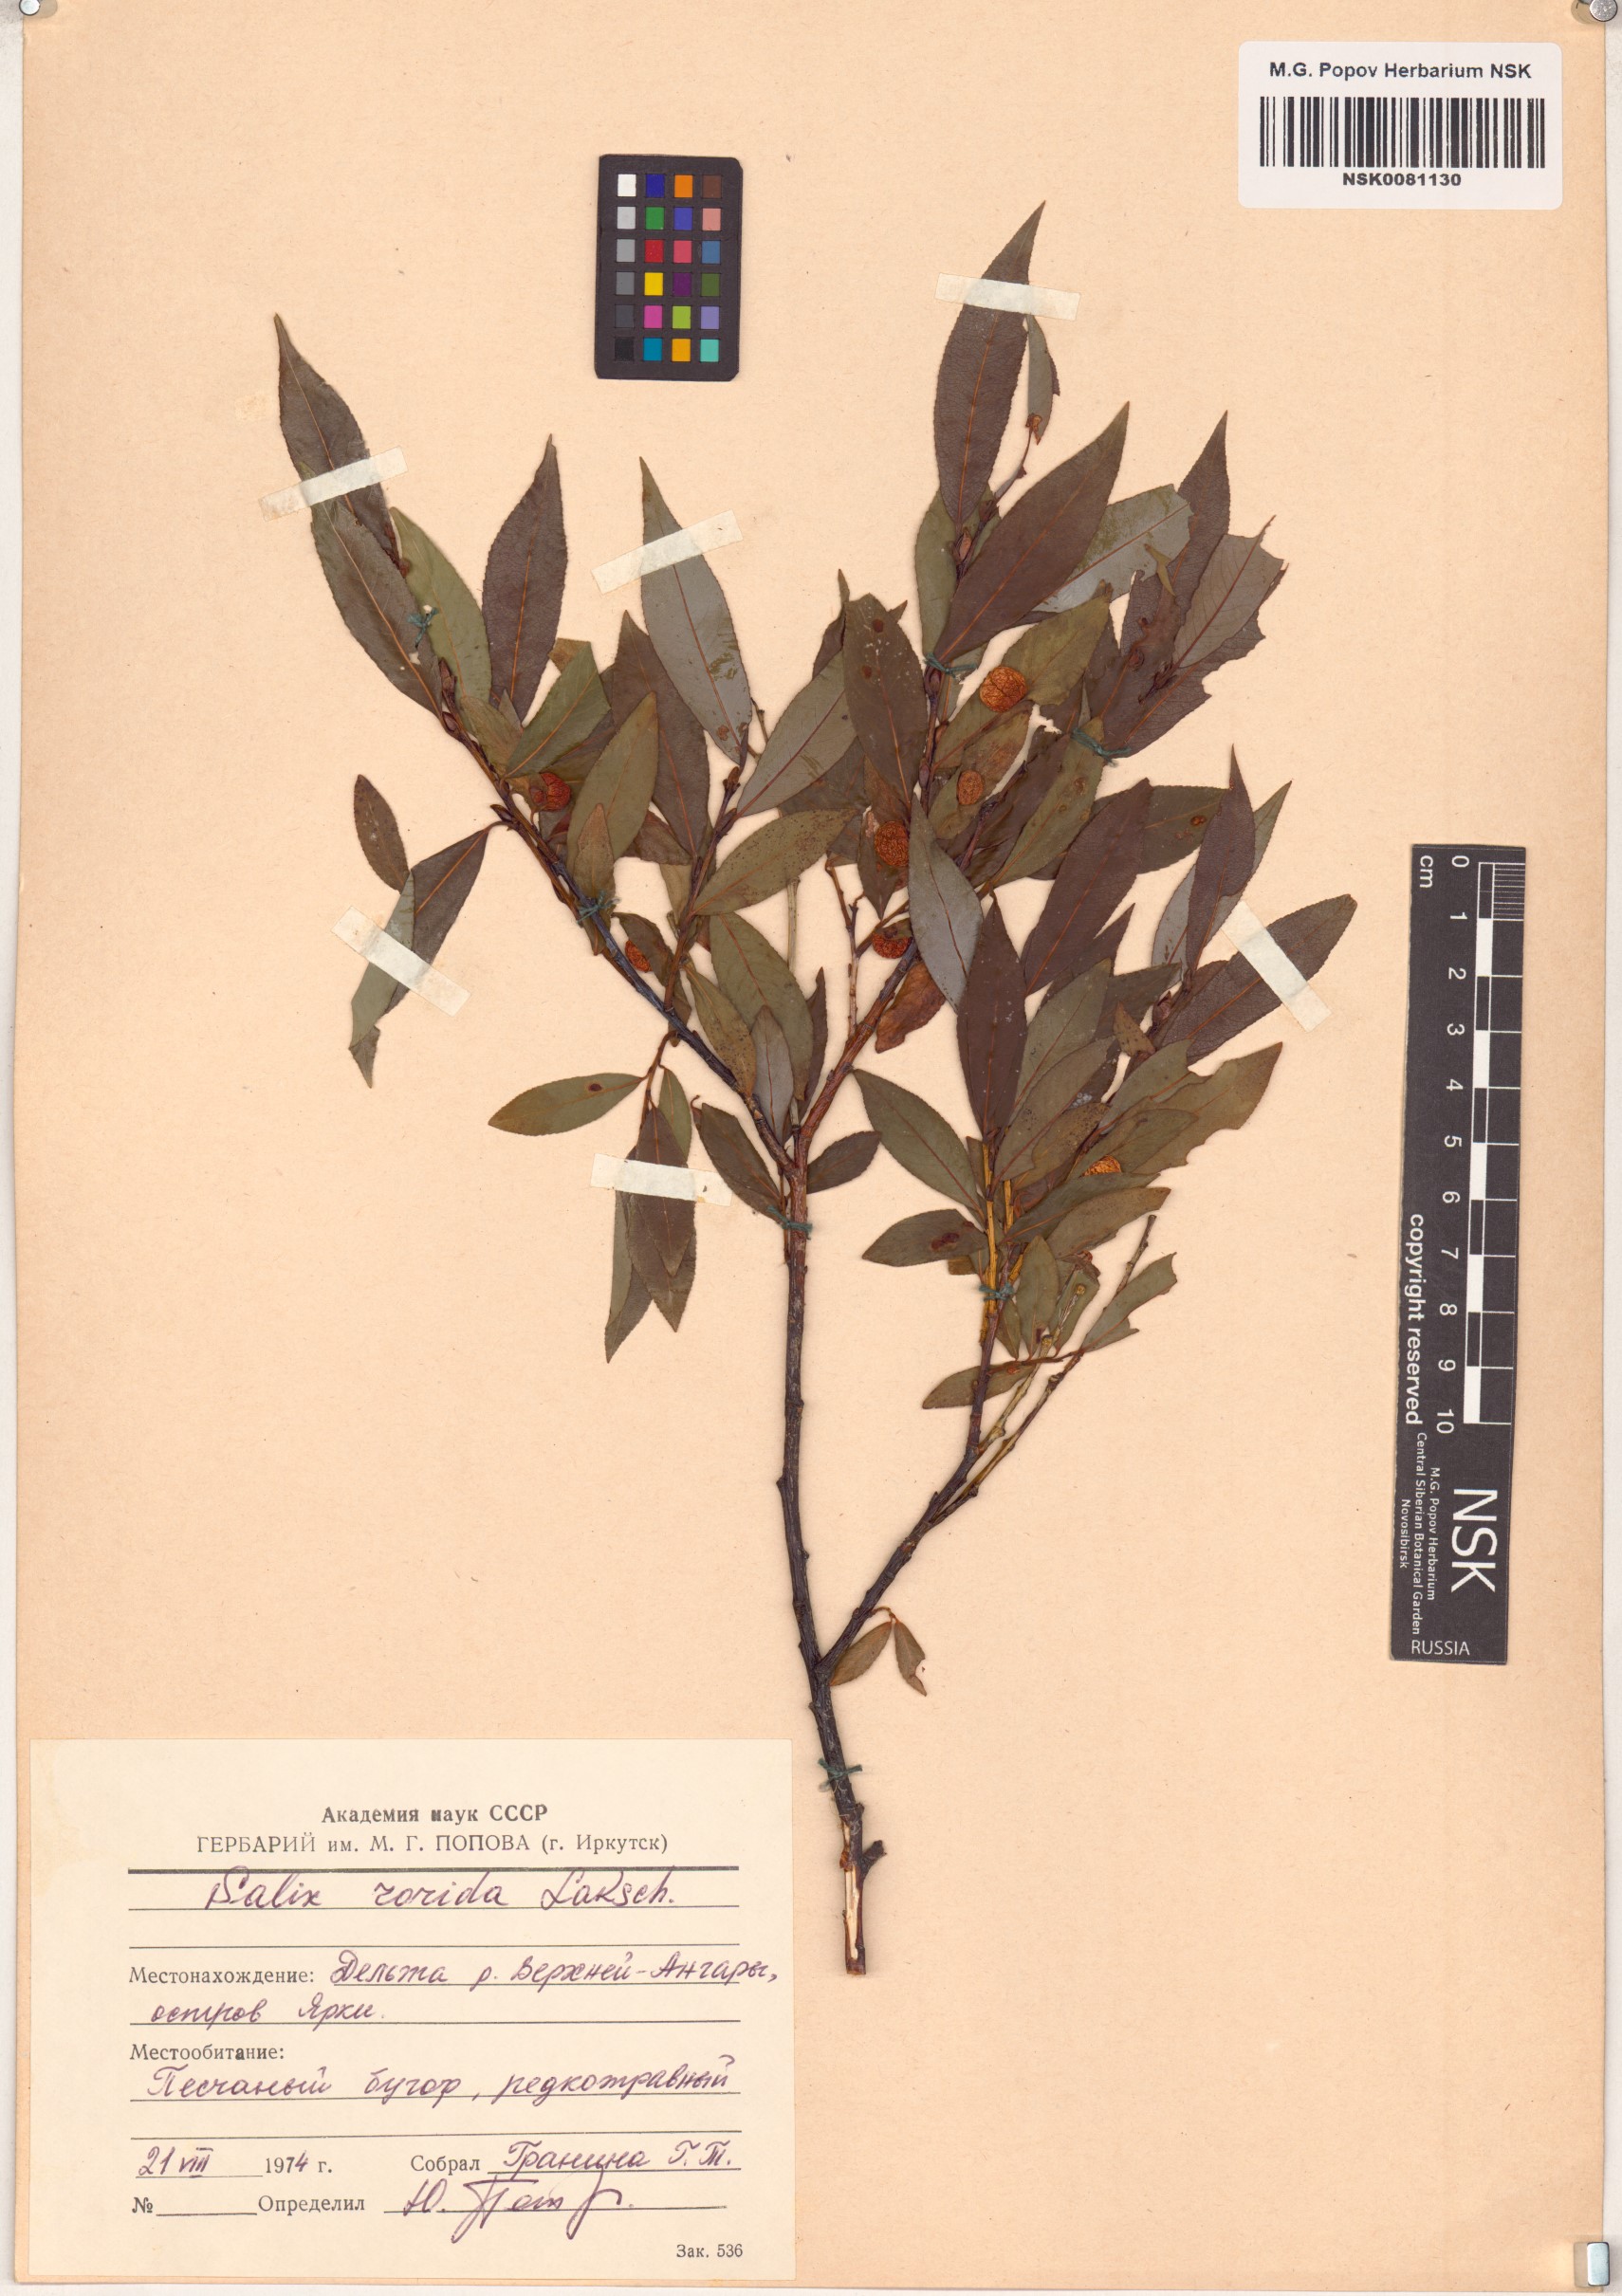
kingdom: Plantae
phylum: Tracheophyta
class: Magnoliopsida
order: Malpighiales
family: Salicaceae
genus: Salix
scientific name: Salix rorida
